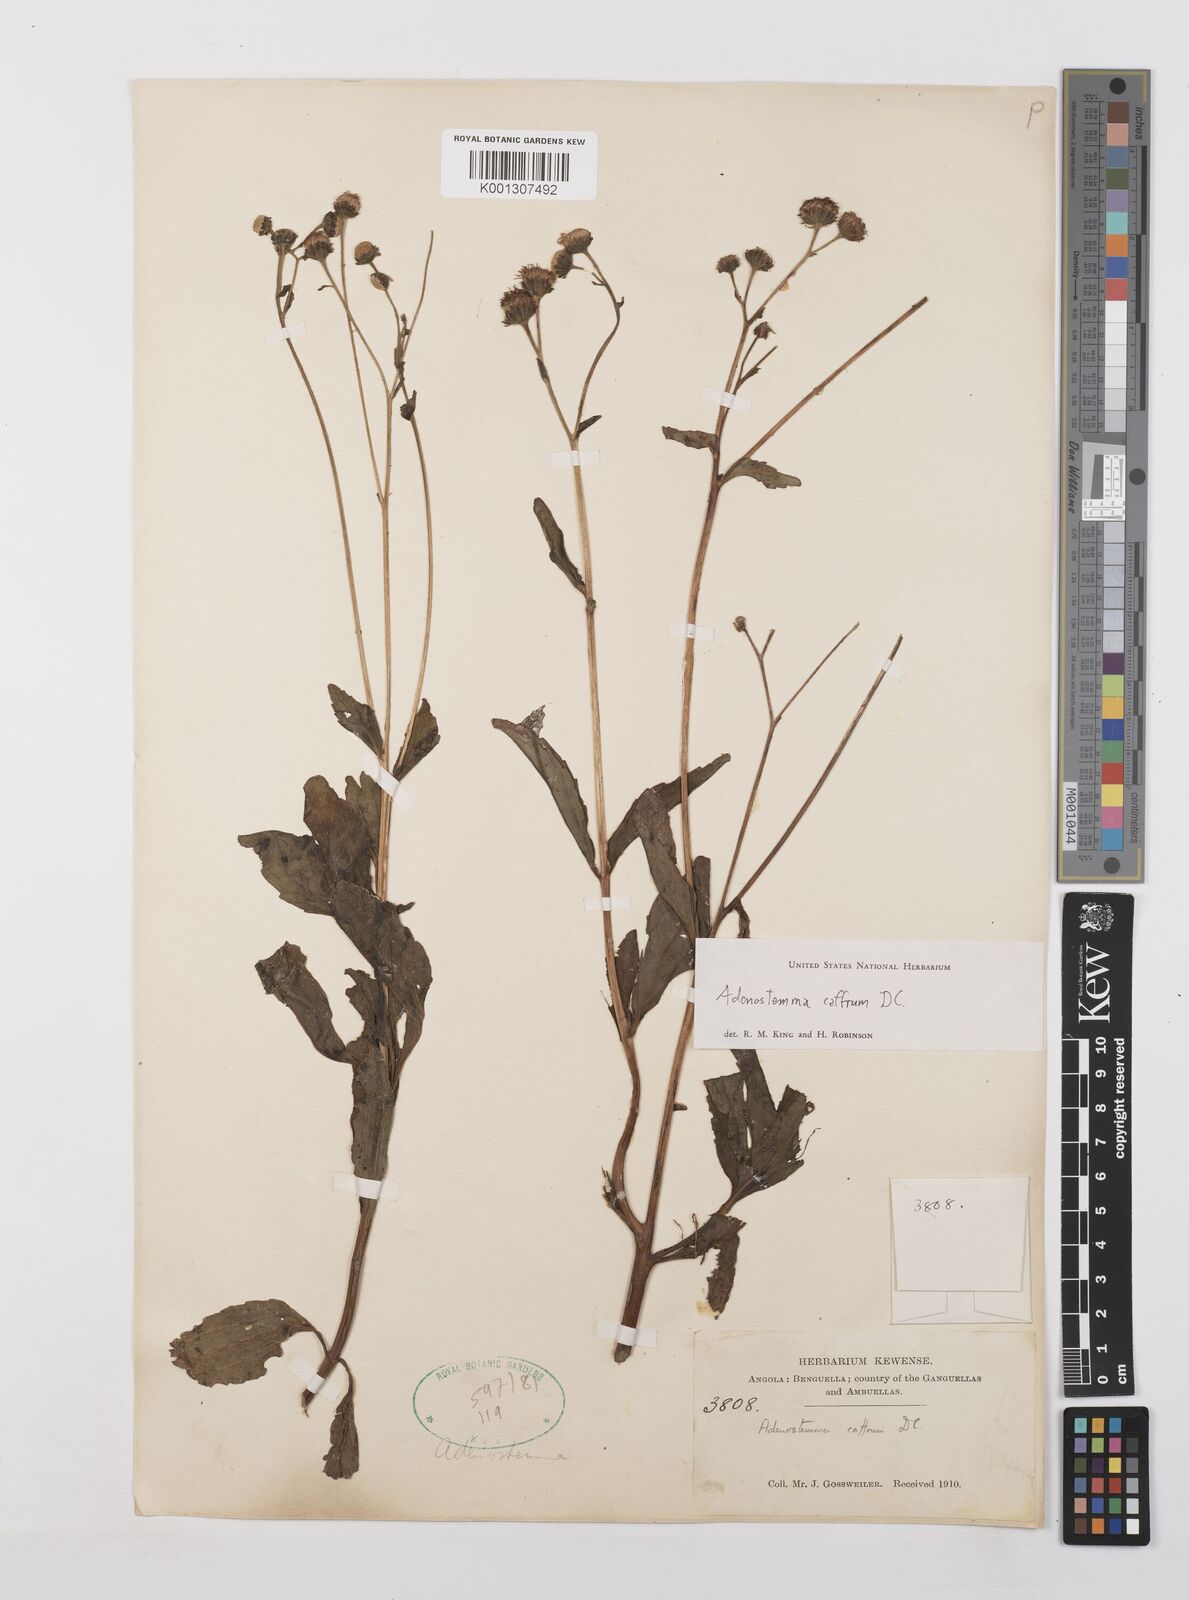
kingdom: Plantae
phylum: Tracheophyta
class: Magnoliopsida
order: Asterales
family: Asteraceae
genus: Adenostemma
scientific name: Adenostemma caffrum
